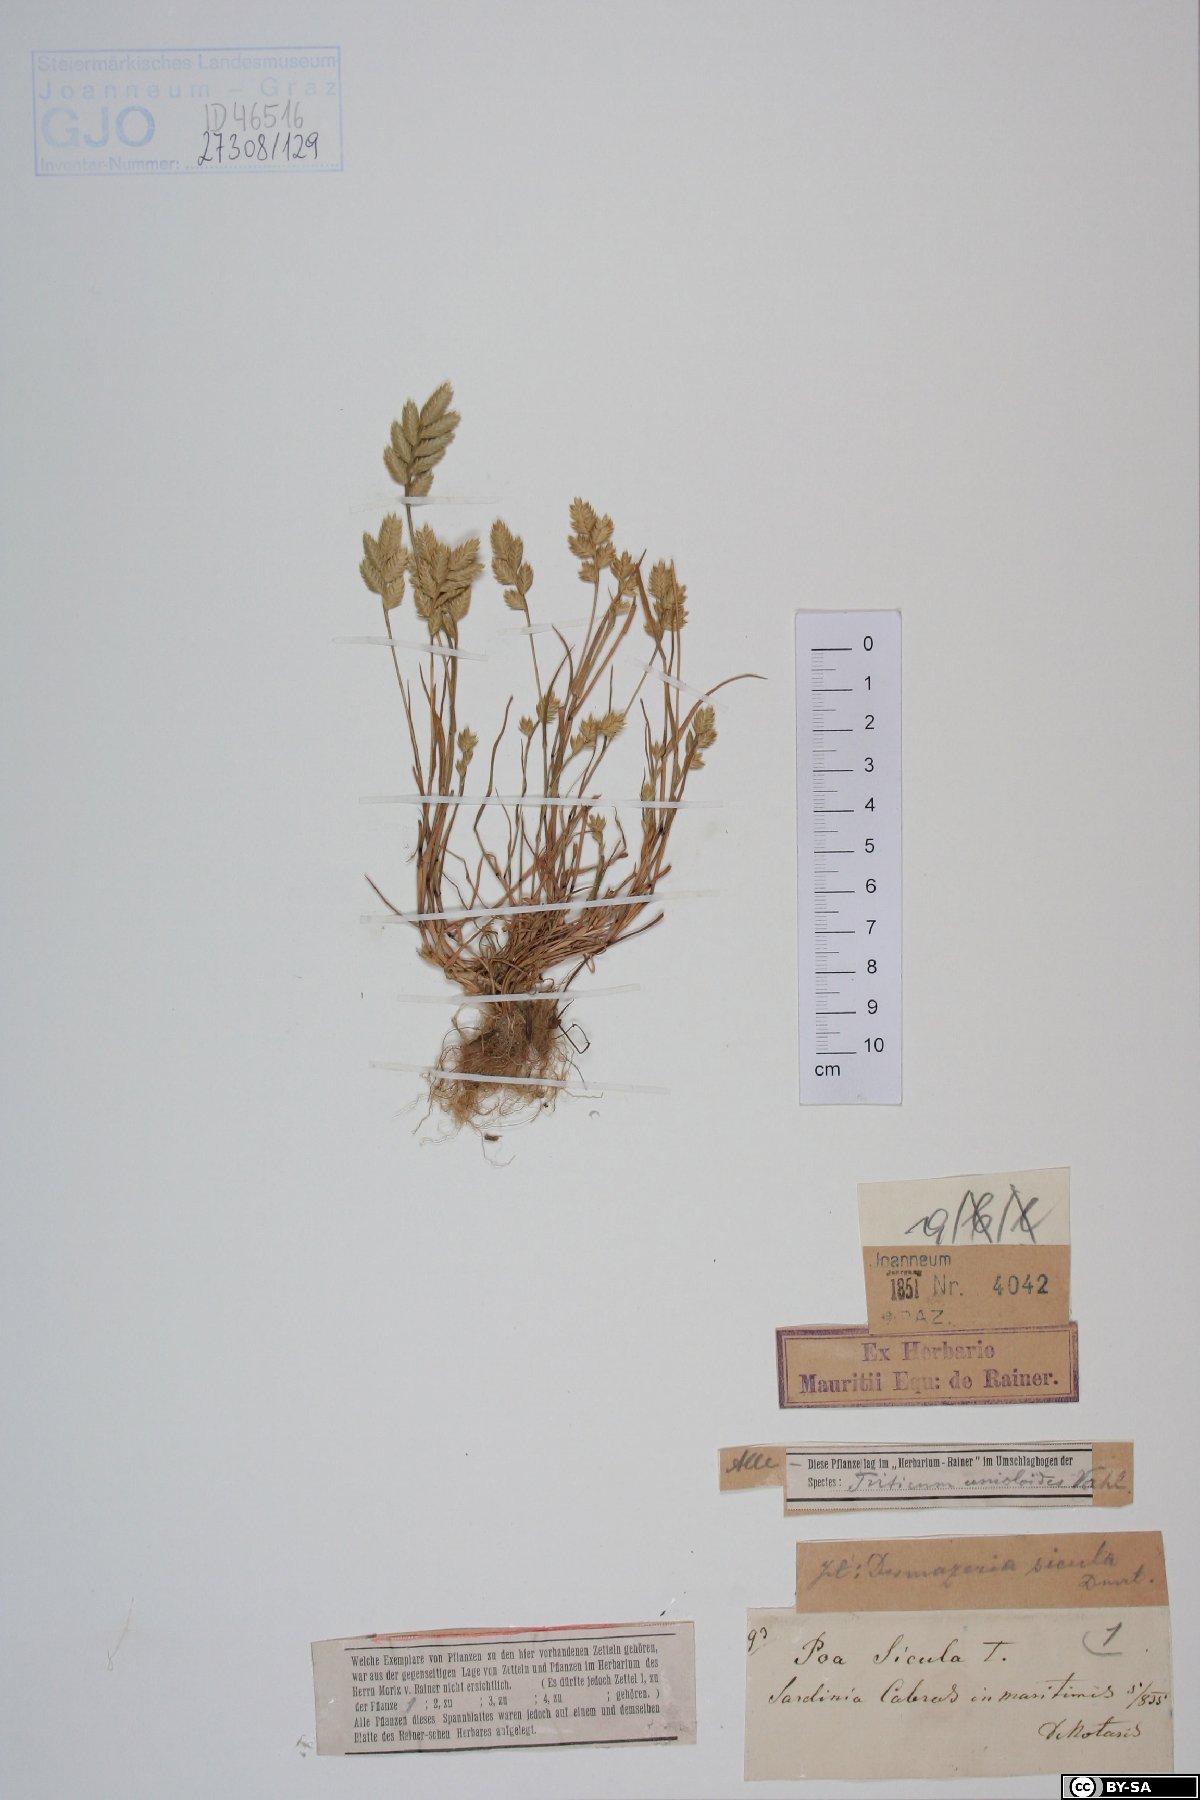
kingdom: Plantae
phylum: Tracheophyta
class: Liliopsida
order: Poales
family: Poaceae
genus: Desmazeria
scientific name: Desmazeria sicula
